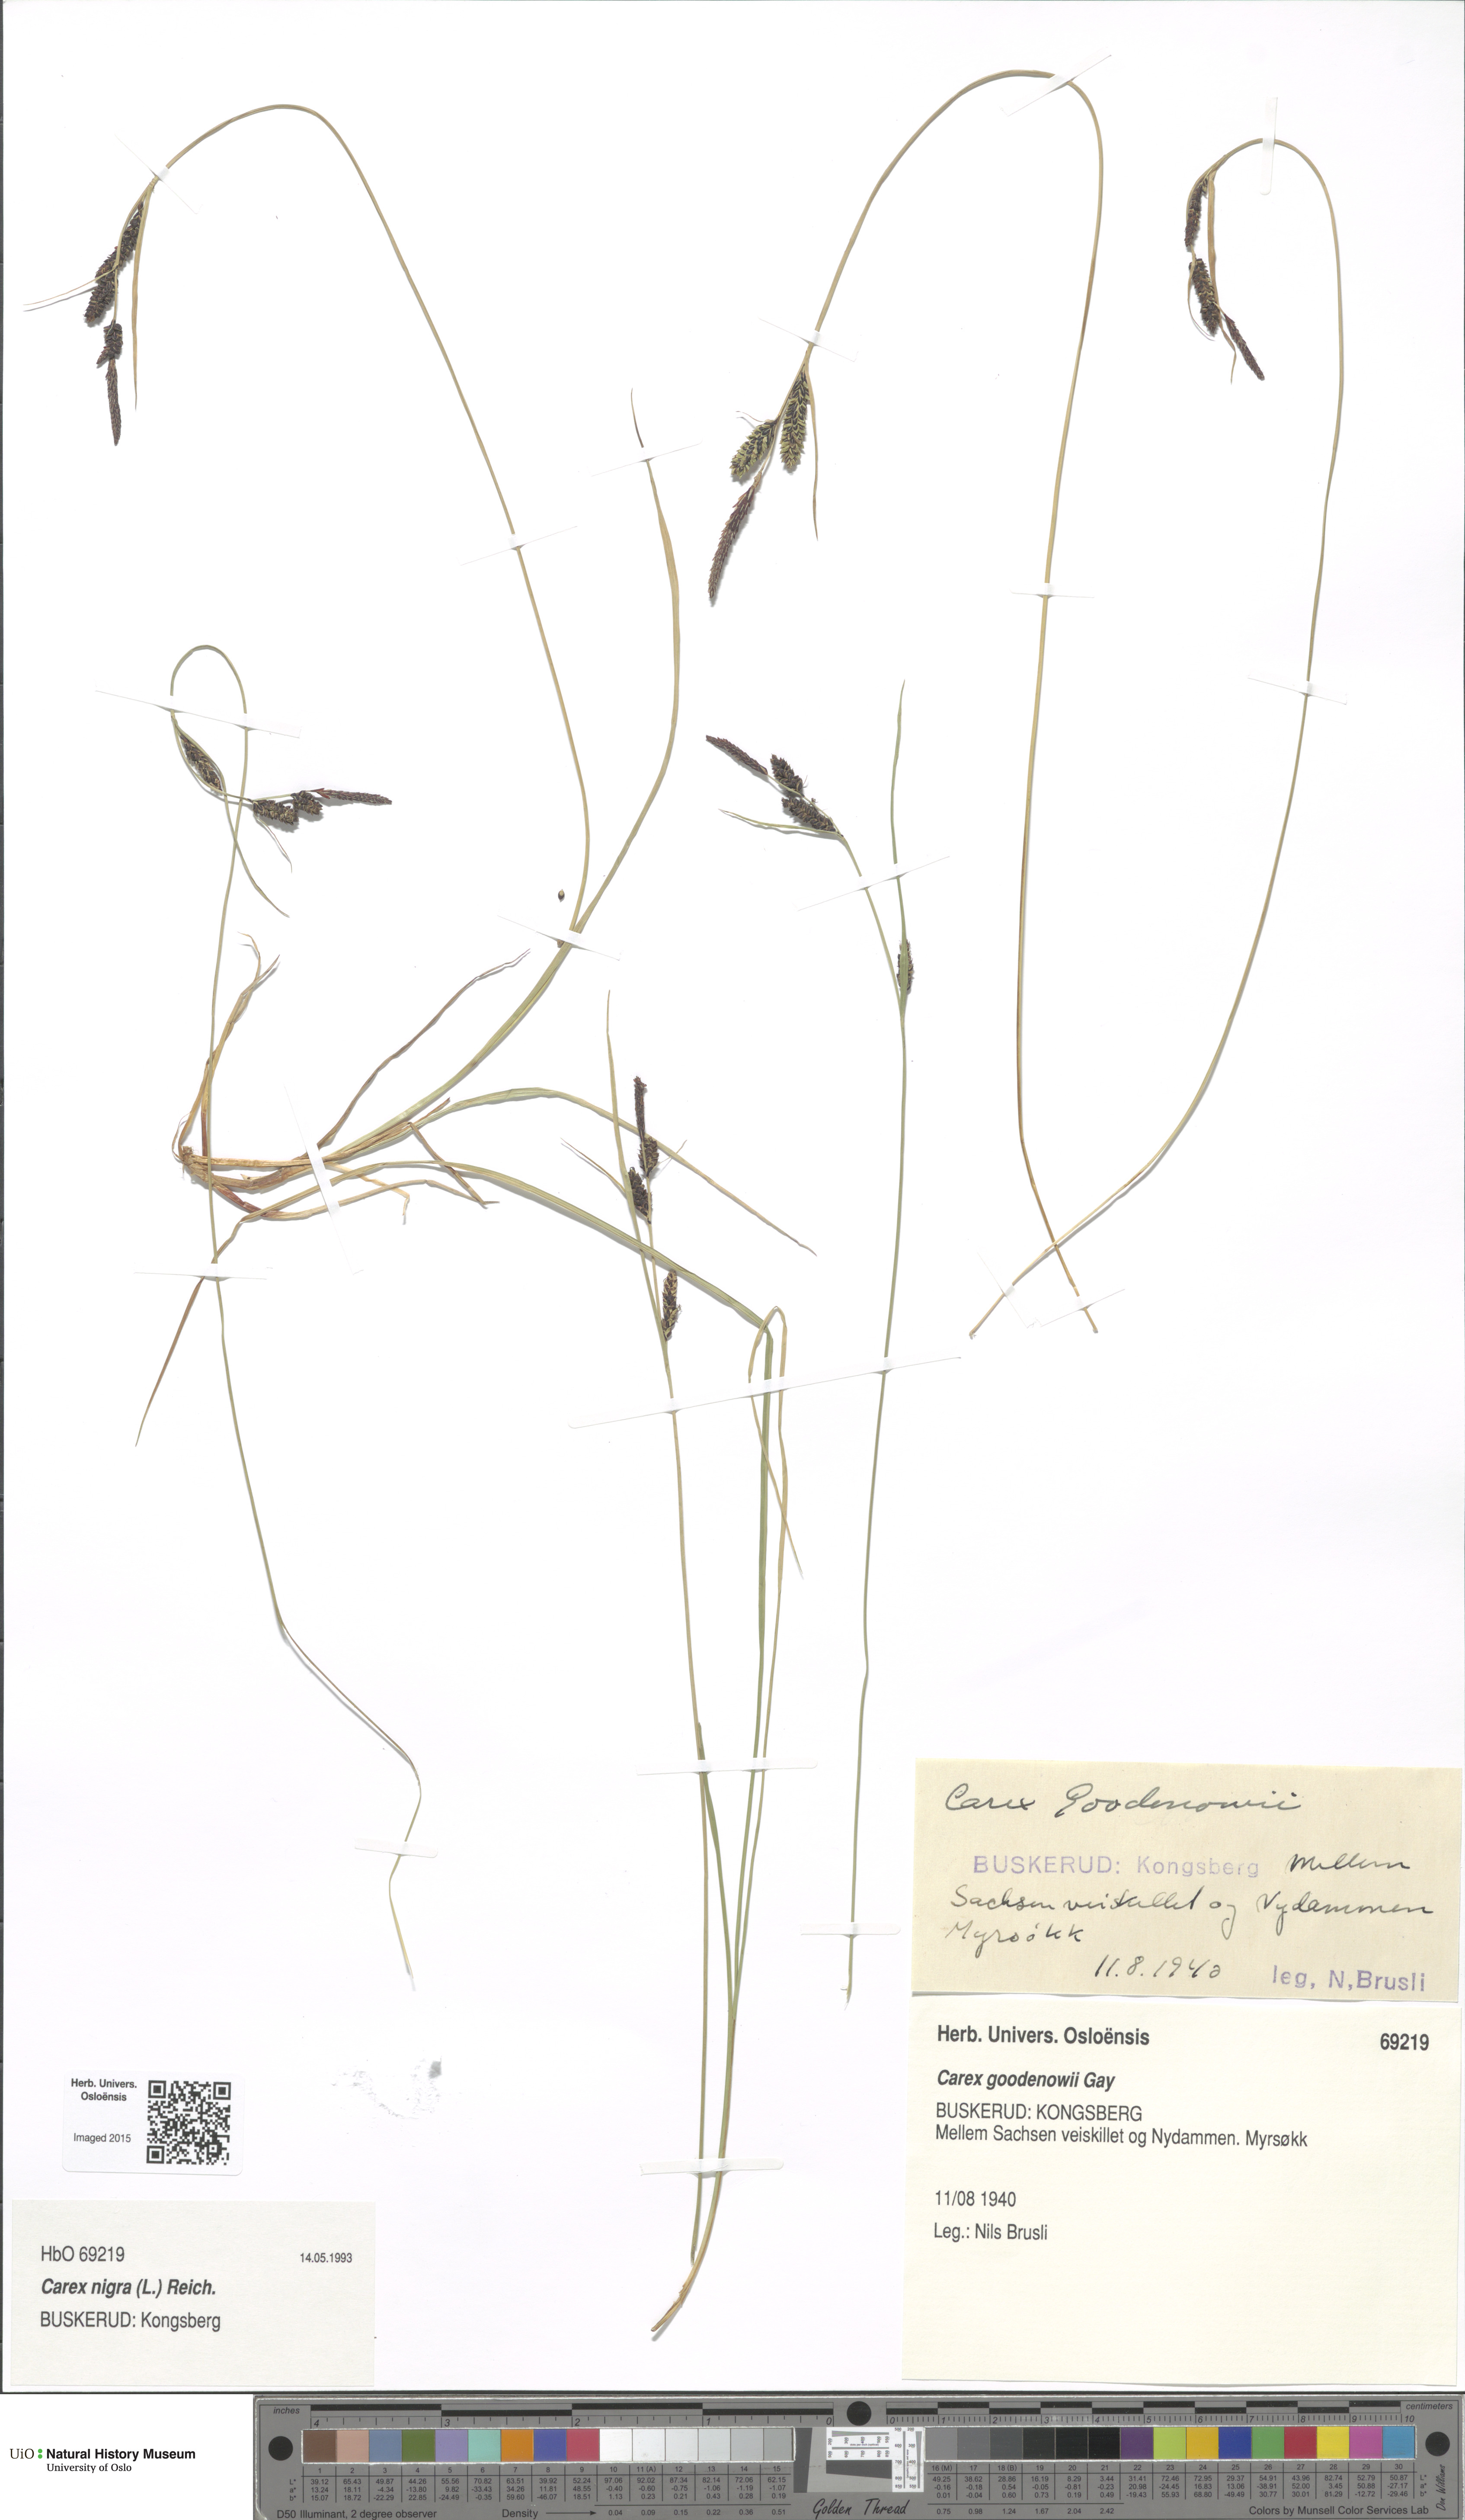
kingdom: Plantae
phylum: Tracheophyta
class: Liliopsida
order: Poales
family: Cyperaceae
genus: Carex
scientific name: Carex nigra
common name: Common sedge
